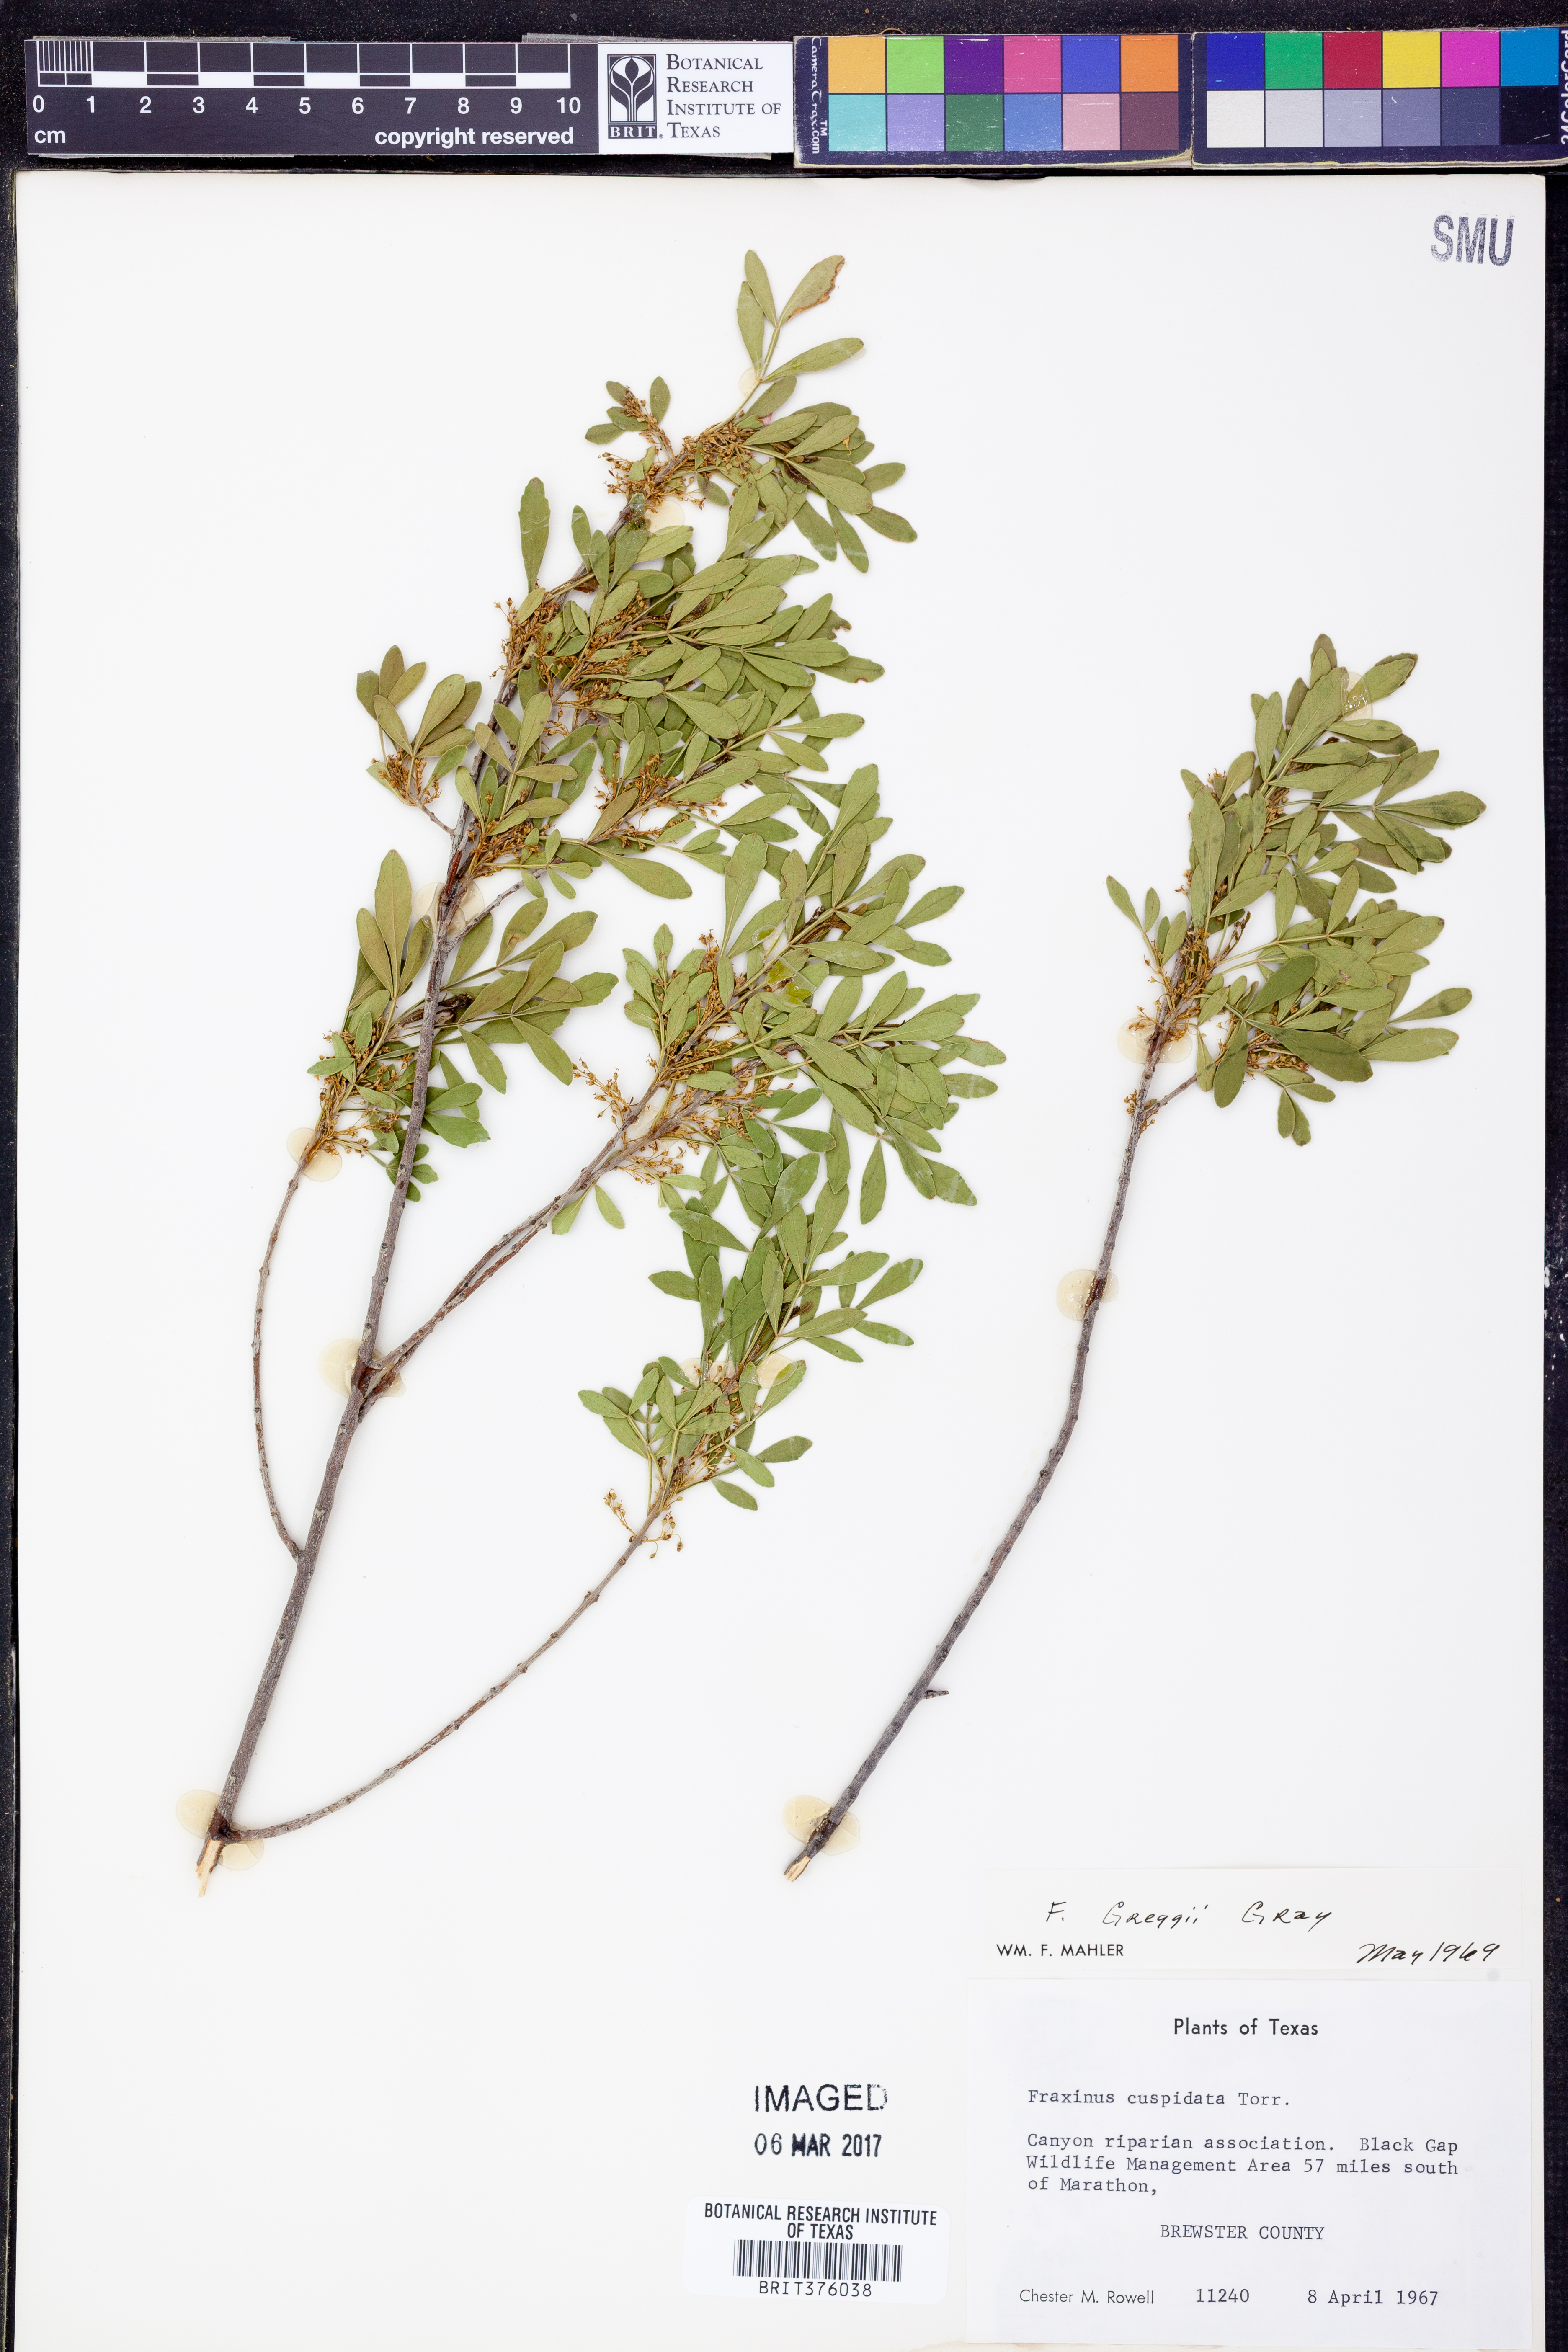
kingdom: Plantae
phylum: Tracheophyta
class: Magnoliopsida
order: Lamiales
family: Oleaceae
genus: Fraxinus
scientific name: Fraxinus greggii
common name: Gregg ash
